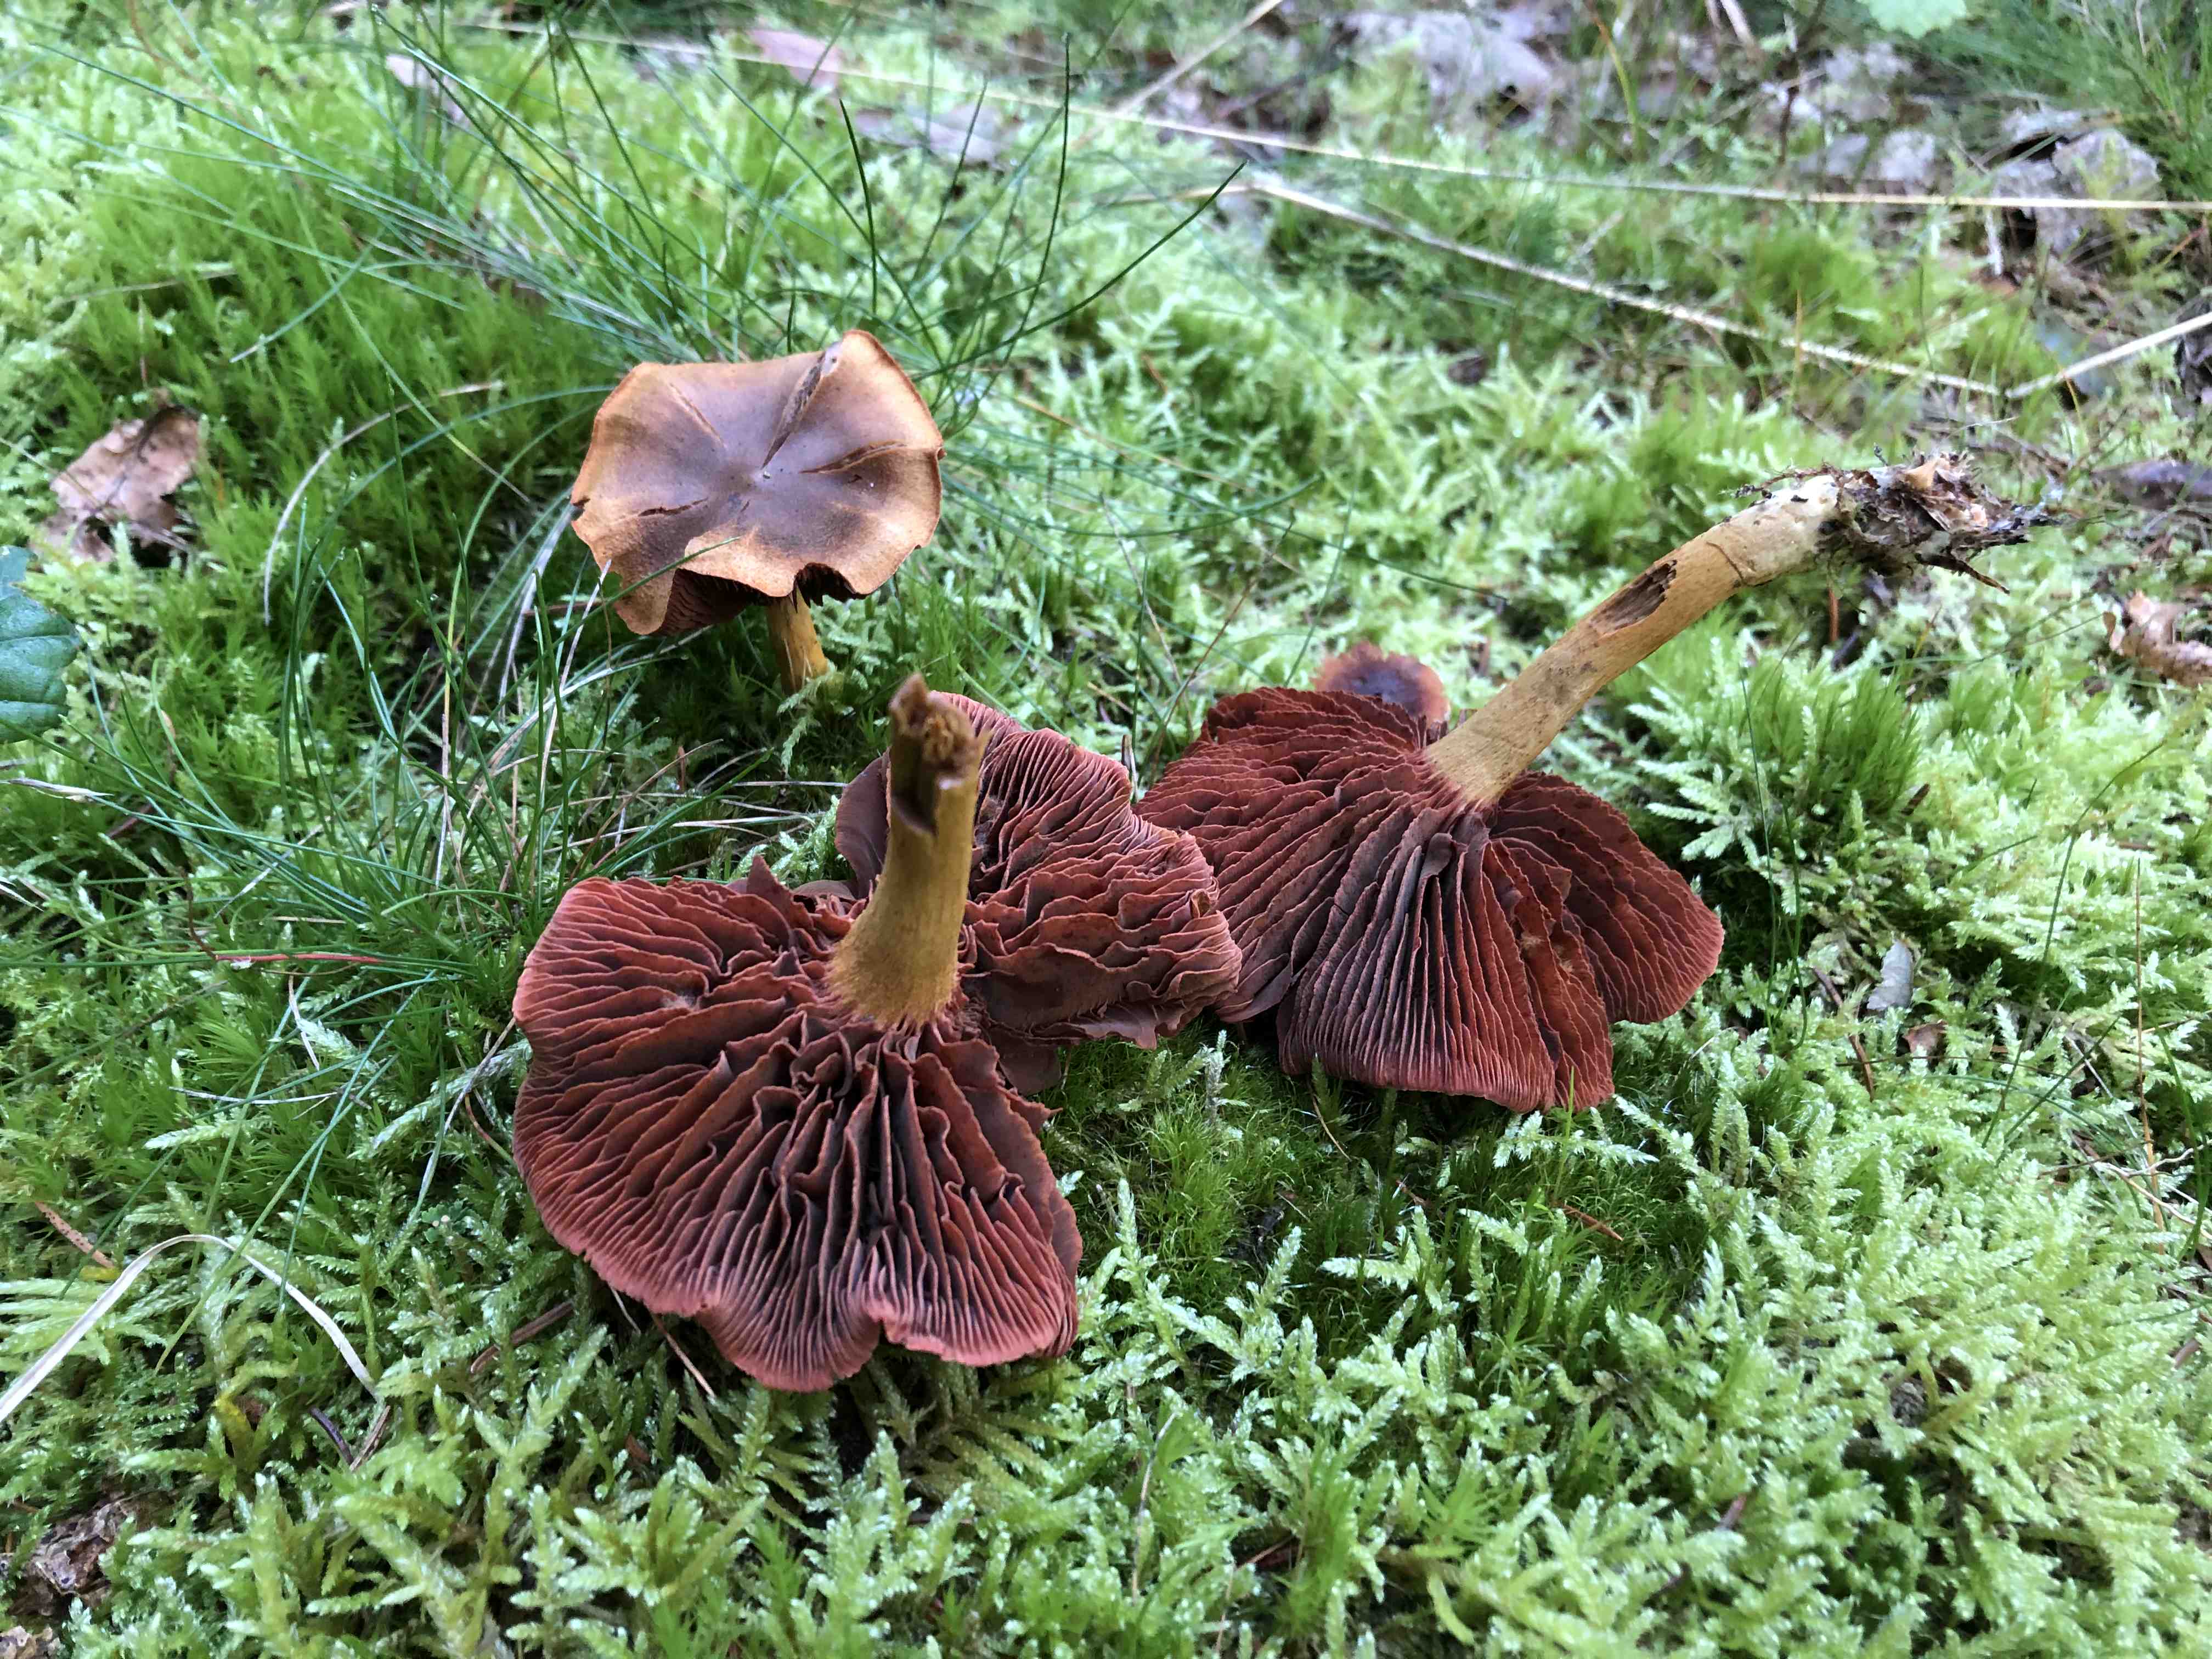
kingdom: Fungi
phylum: Basidiomycota
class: Agaricomycetes
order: Agaricales
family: Cortinariaceae
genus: Cortinarius
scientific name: Cortinarius
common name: cinnoberbladet slørhat
